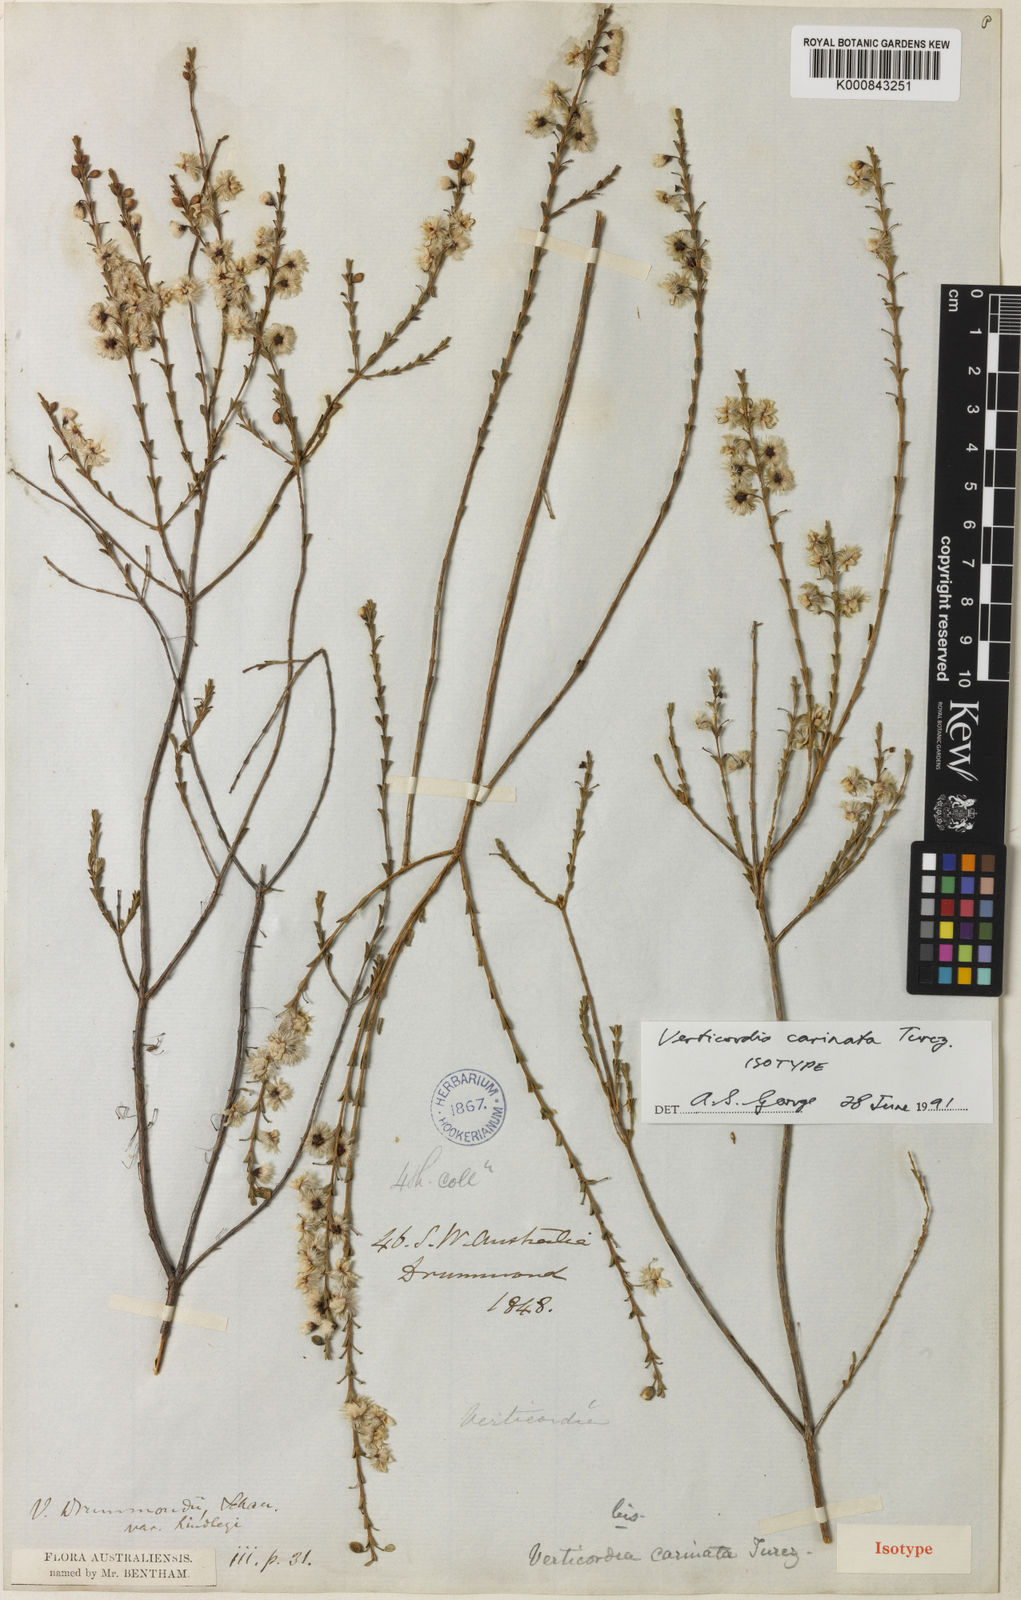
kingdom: Plantae
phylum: Tracheophyta
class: Magnoliopsida
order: Myrtales
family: Myrtaceae
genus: Verticordia
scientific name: Verticordia carinata
